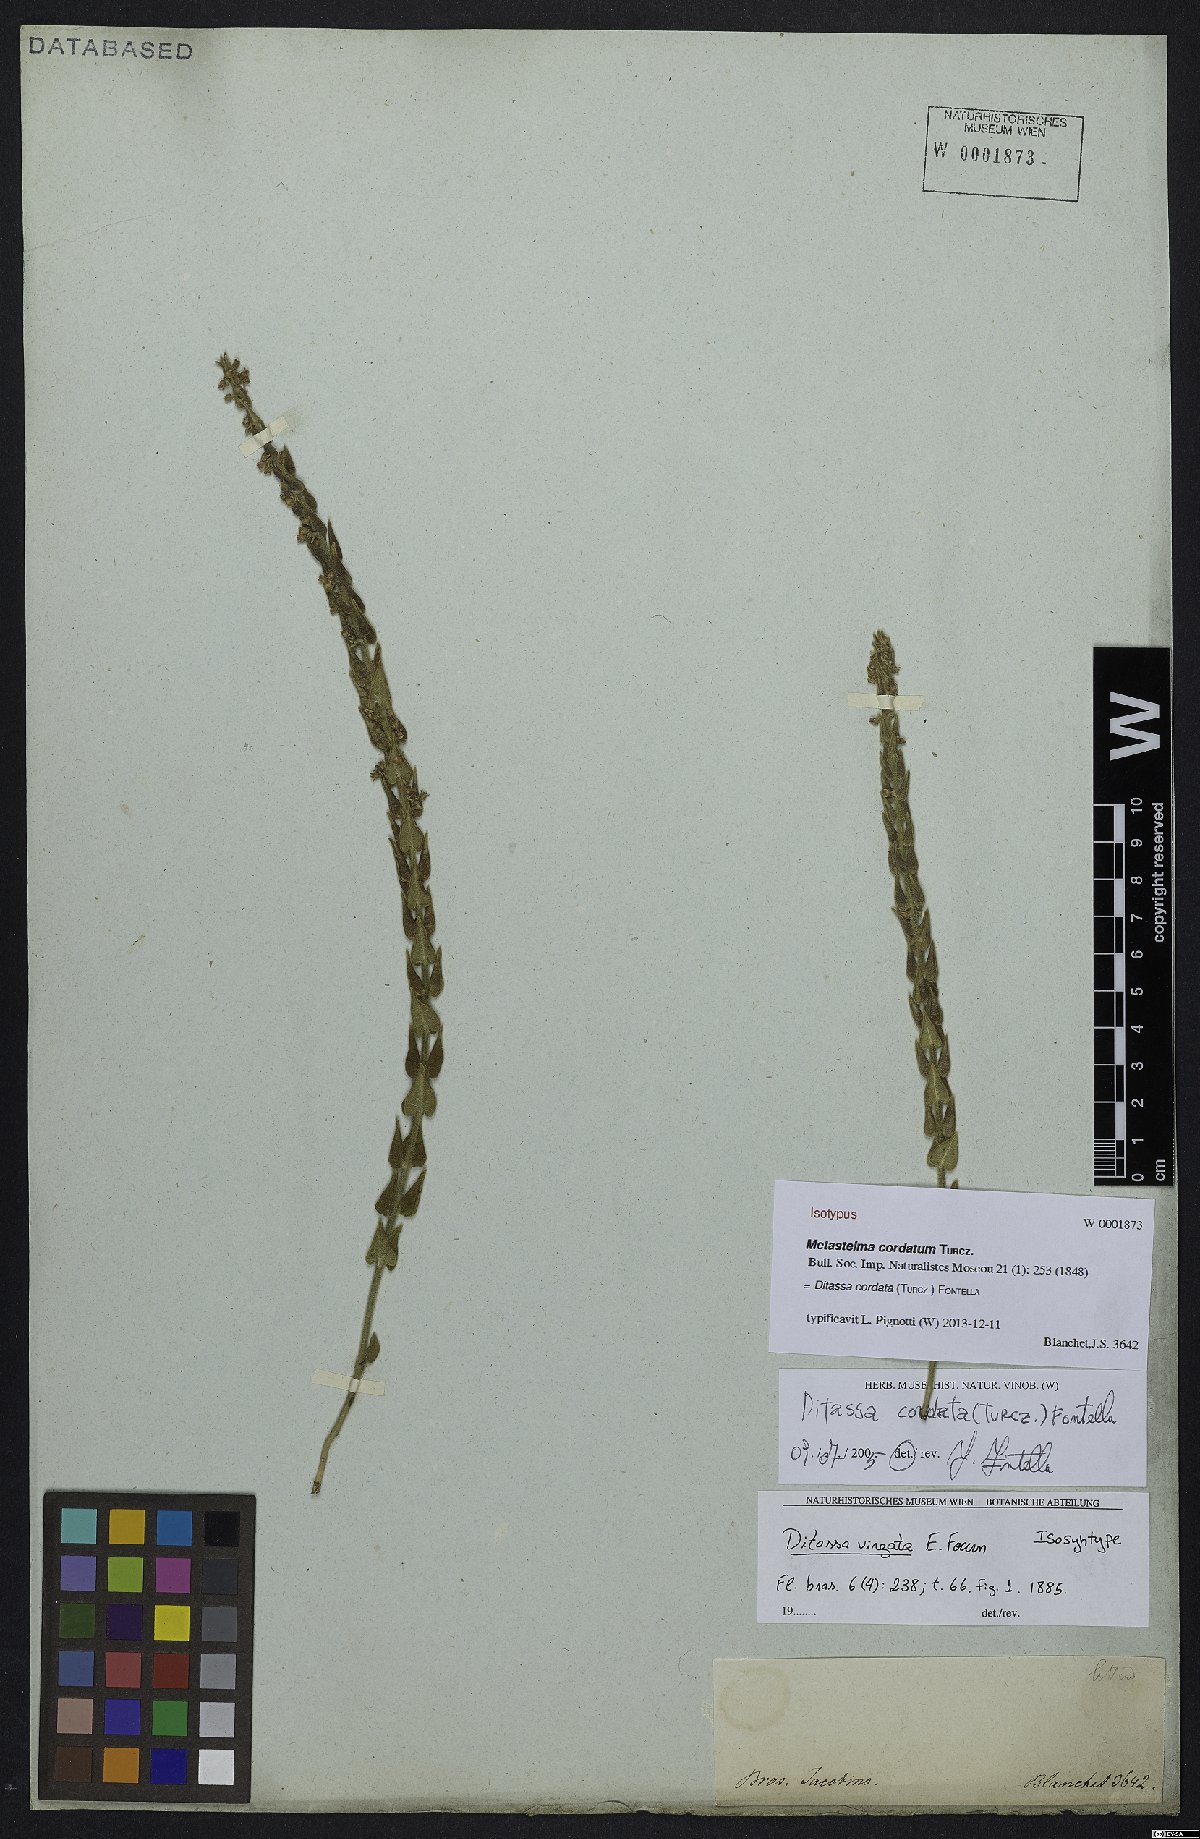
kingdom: Plantae
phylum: Tracheophyta
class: Magnoliopsida
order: Gentianales
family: Apocynaceae
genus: Minaria
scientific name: Minaria cordata
